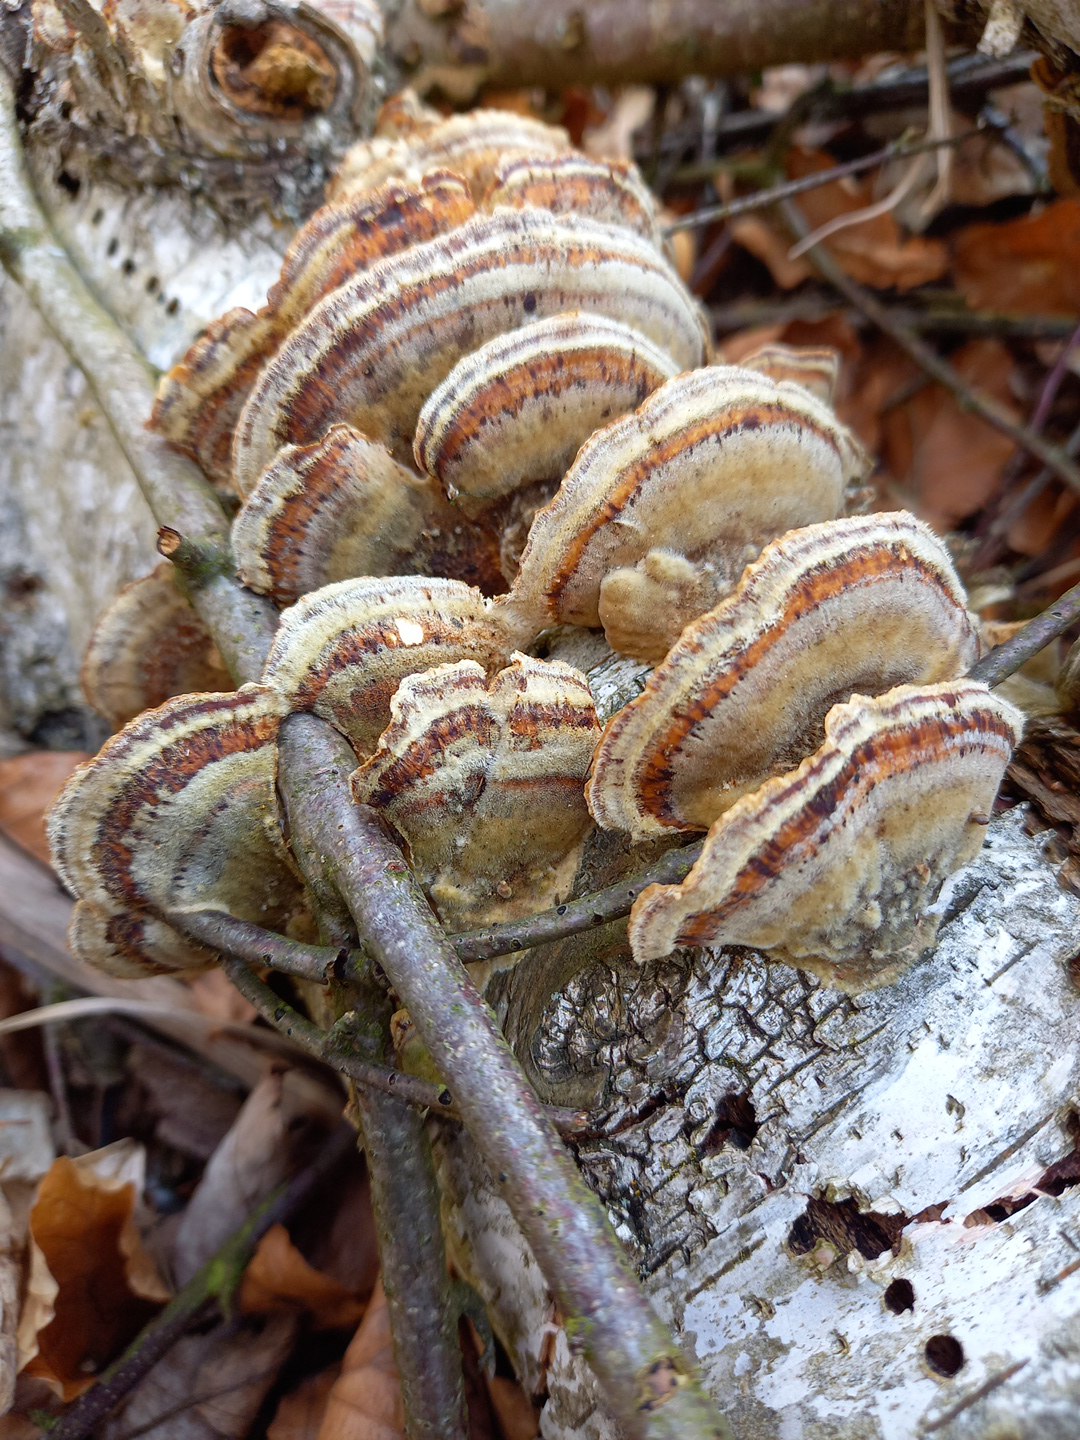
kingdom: Fungi
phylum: Basidiomycota
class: Agaricomycetes
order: Polyporales
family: Polyporaceae
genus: Trametes
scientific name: Trametes
